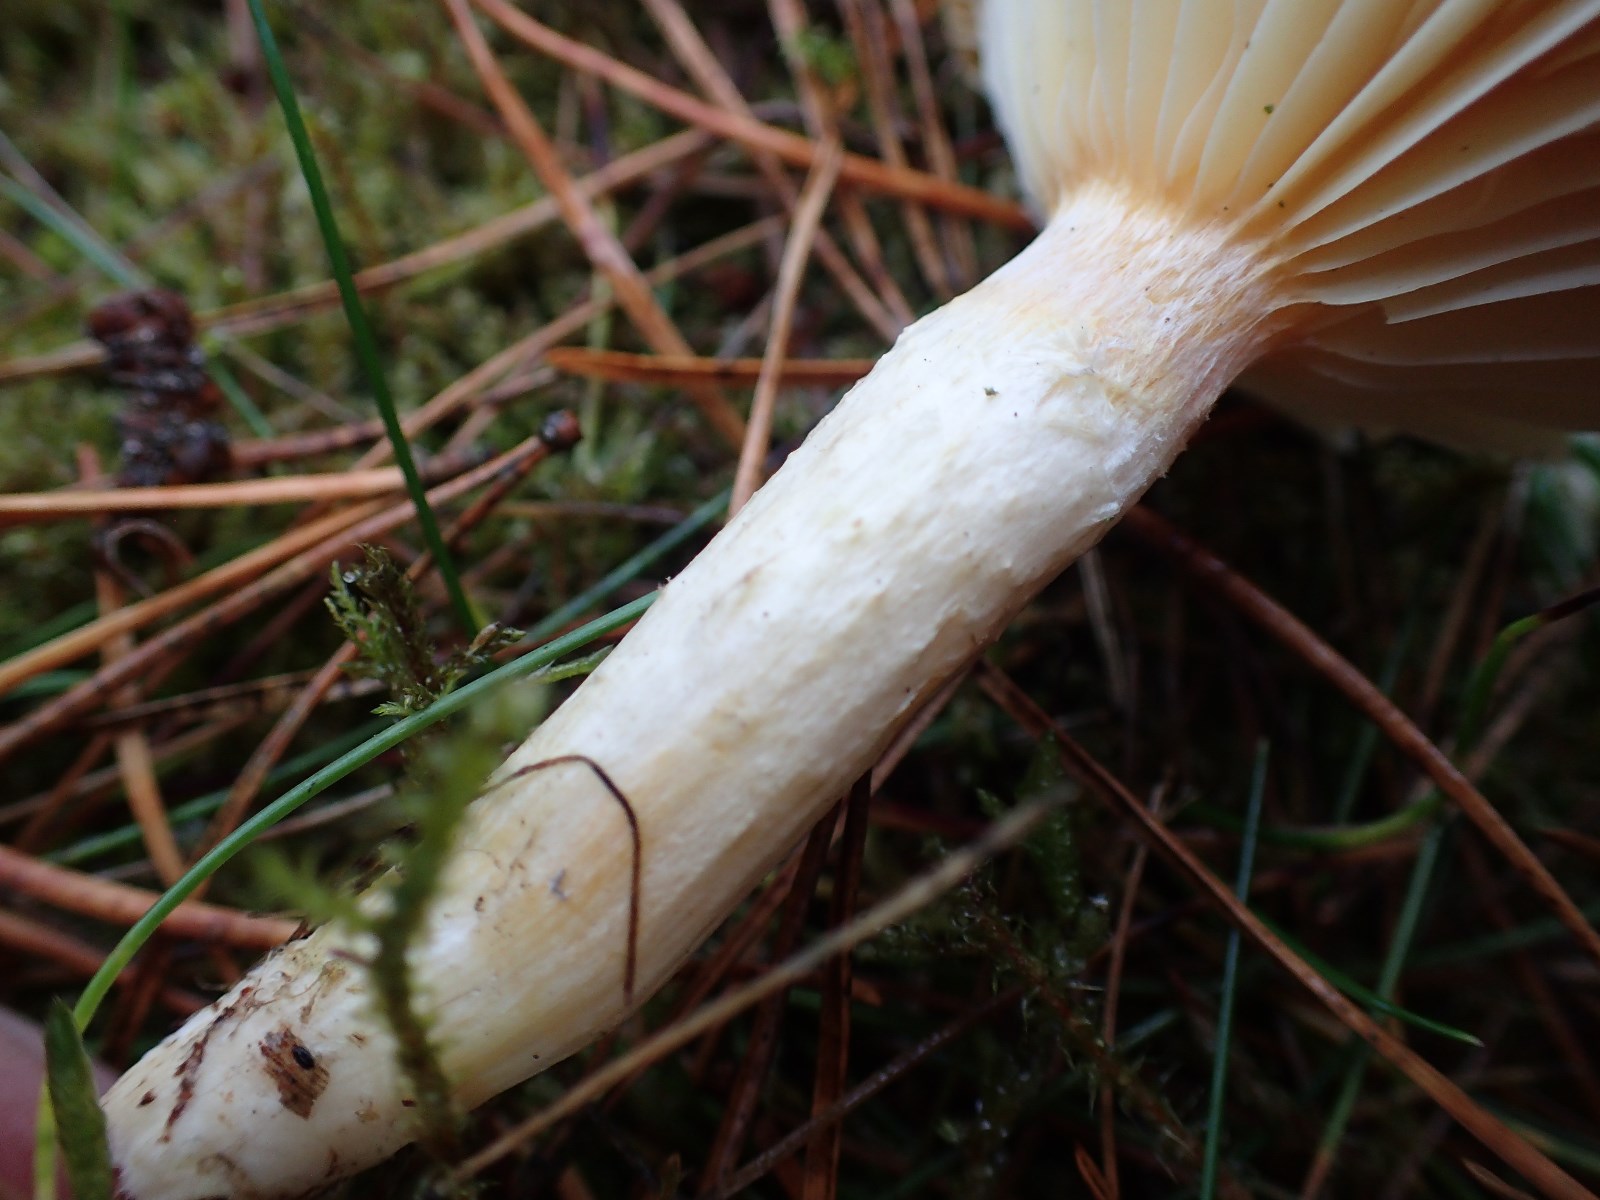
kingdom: Fungi
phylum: Basidiomycota
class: Agaricomycetes
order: Agaricales
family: Hygrophoraceae
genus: Hygrophorus
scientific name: Hygrophorus hypothejus
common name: frost-sneglehat
